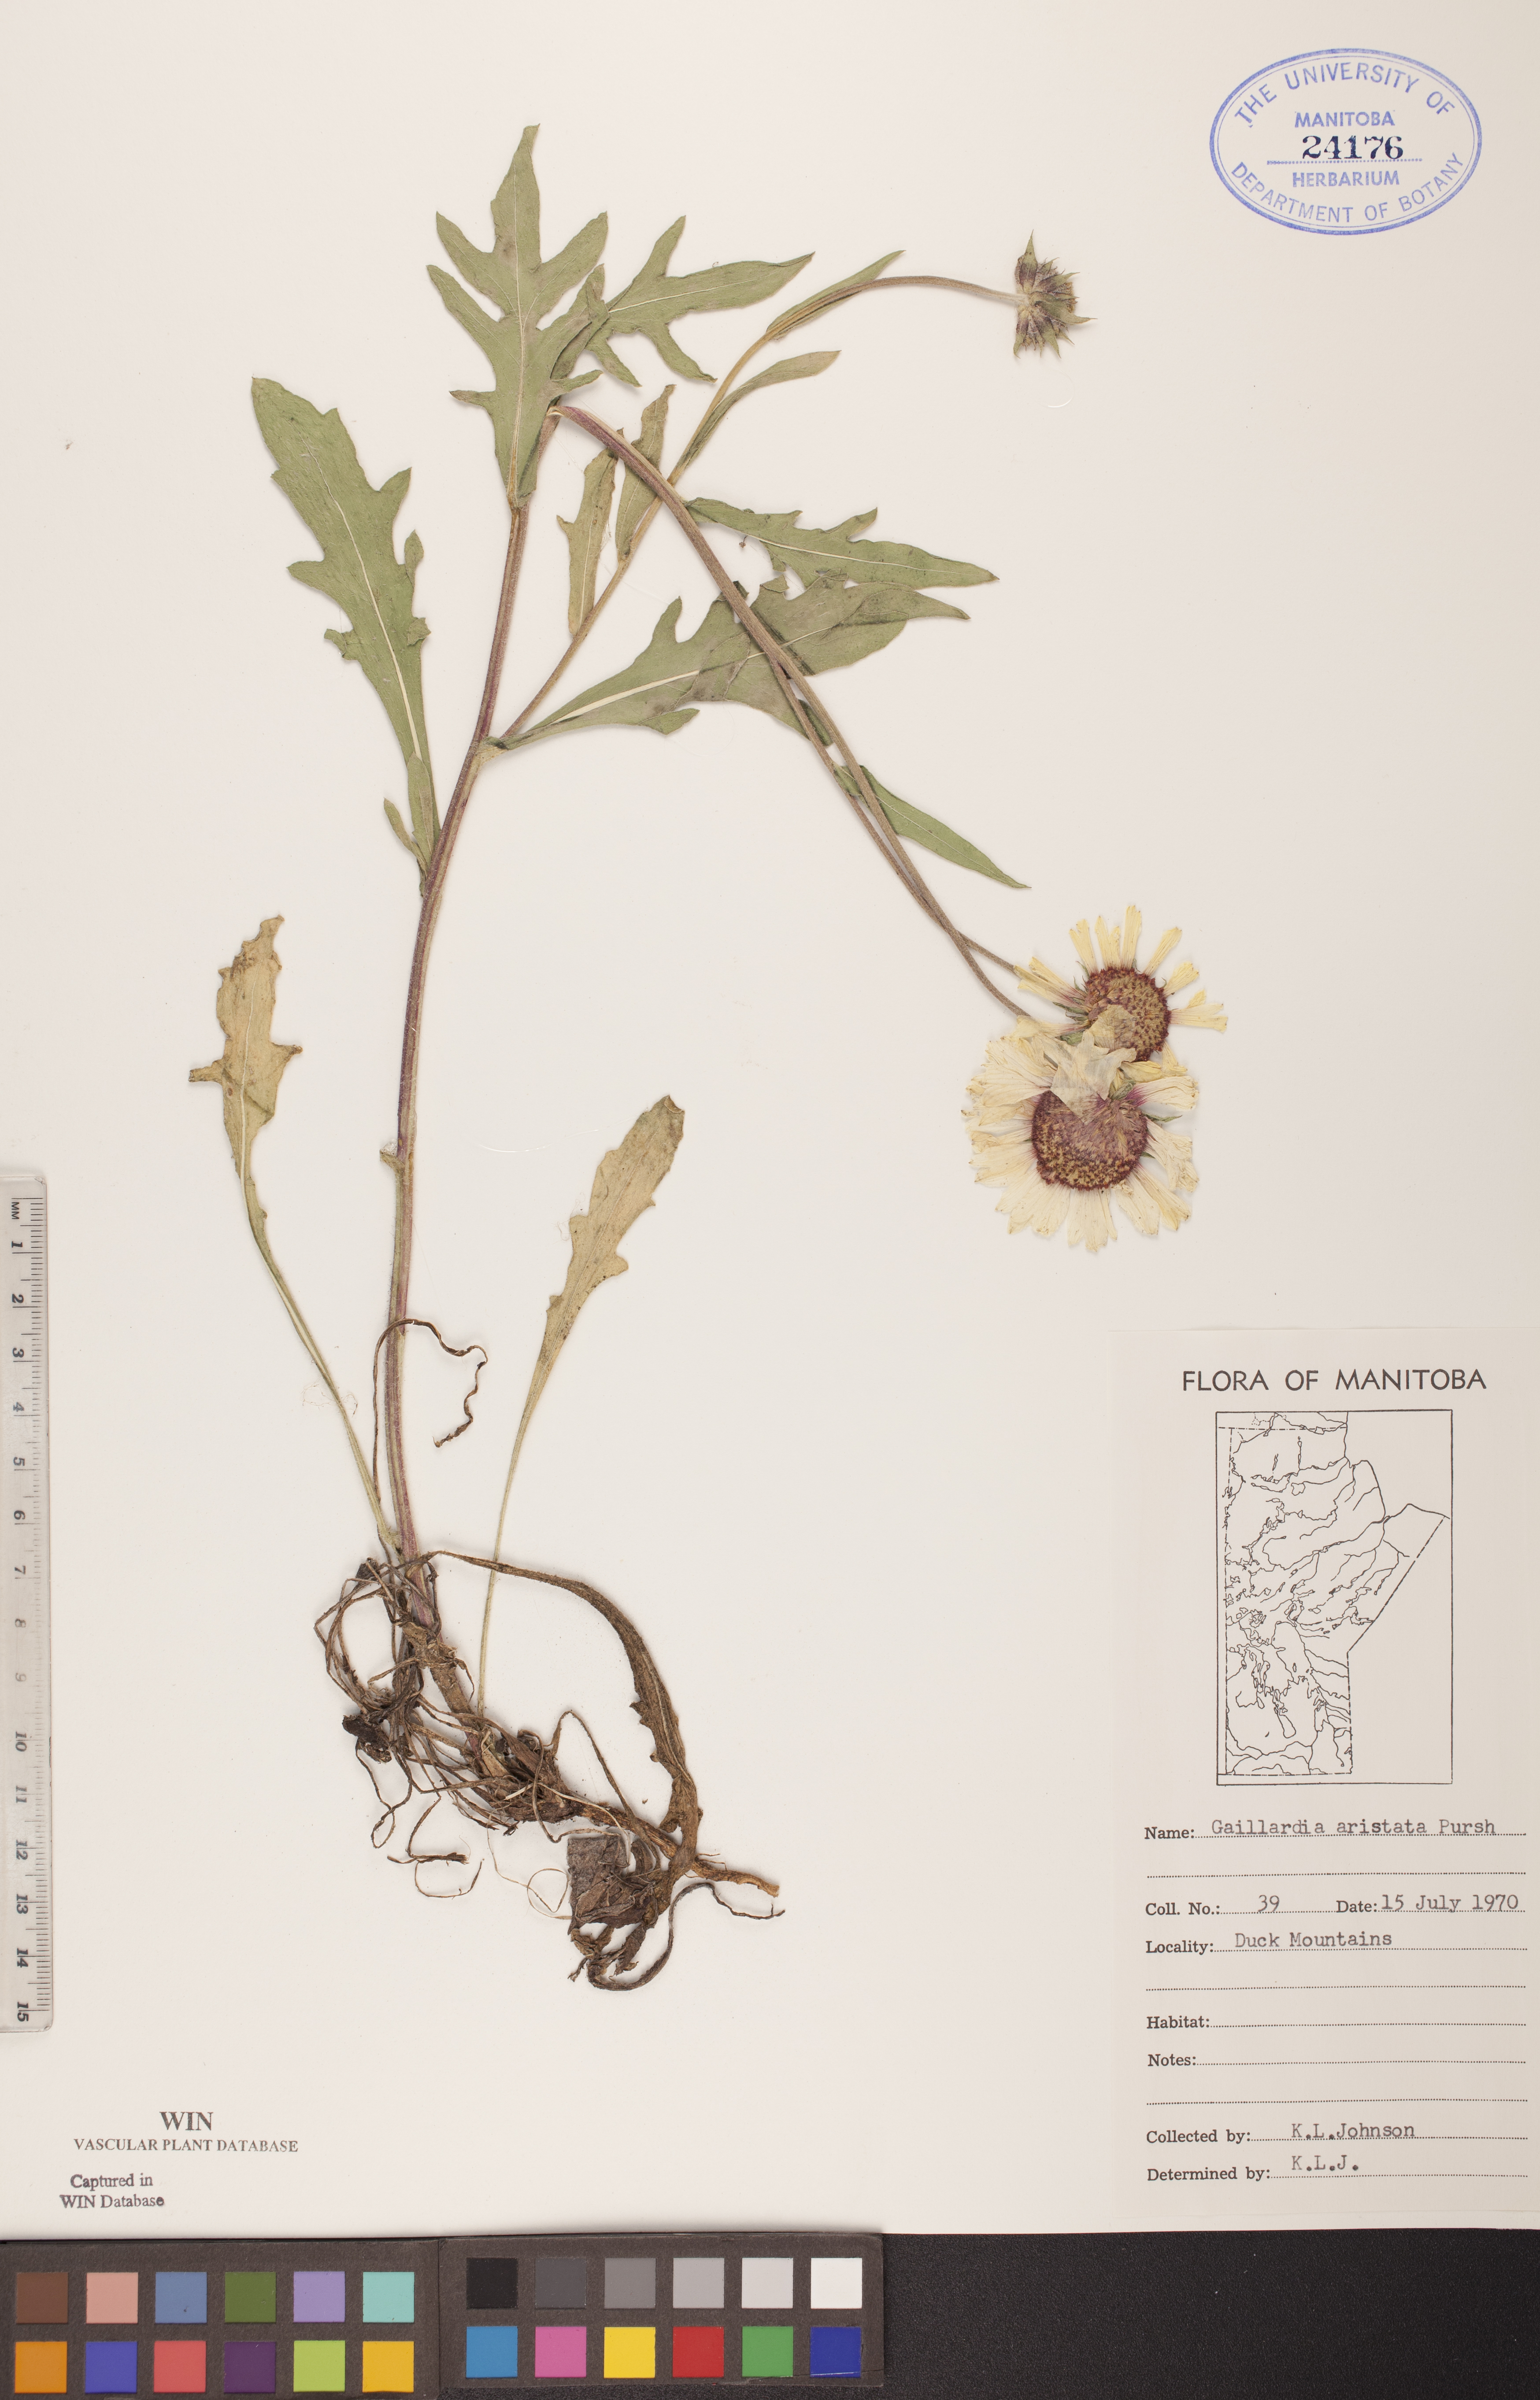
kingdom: Plantae
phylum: Tracheophyta
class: Magnoliopsida
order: Asterales
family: Asteraceae
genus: Gaillardia
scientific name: Gaillardia aristata
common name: Blanket-flower
